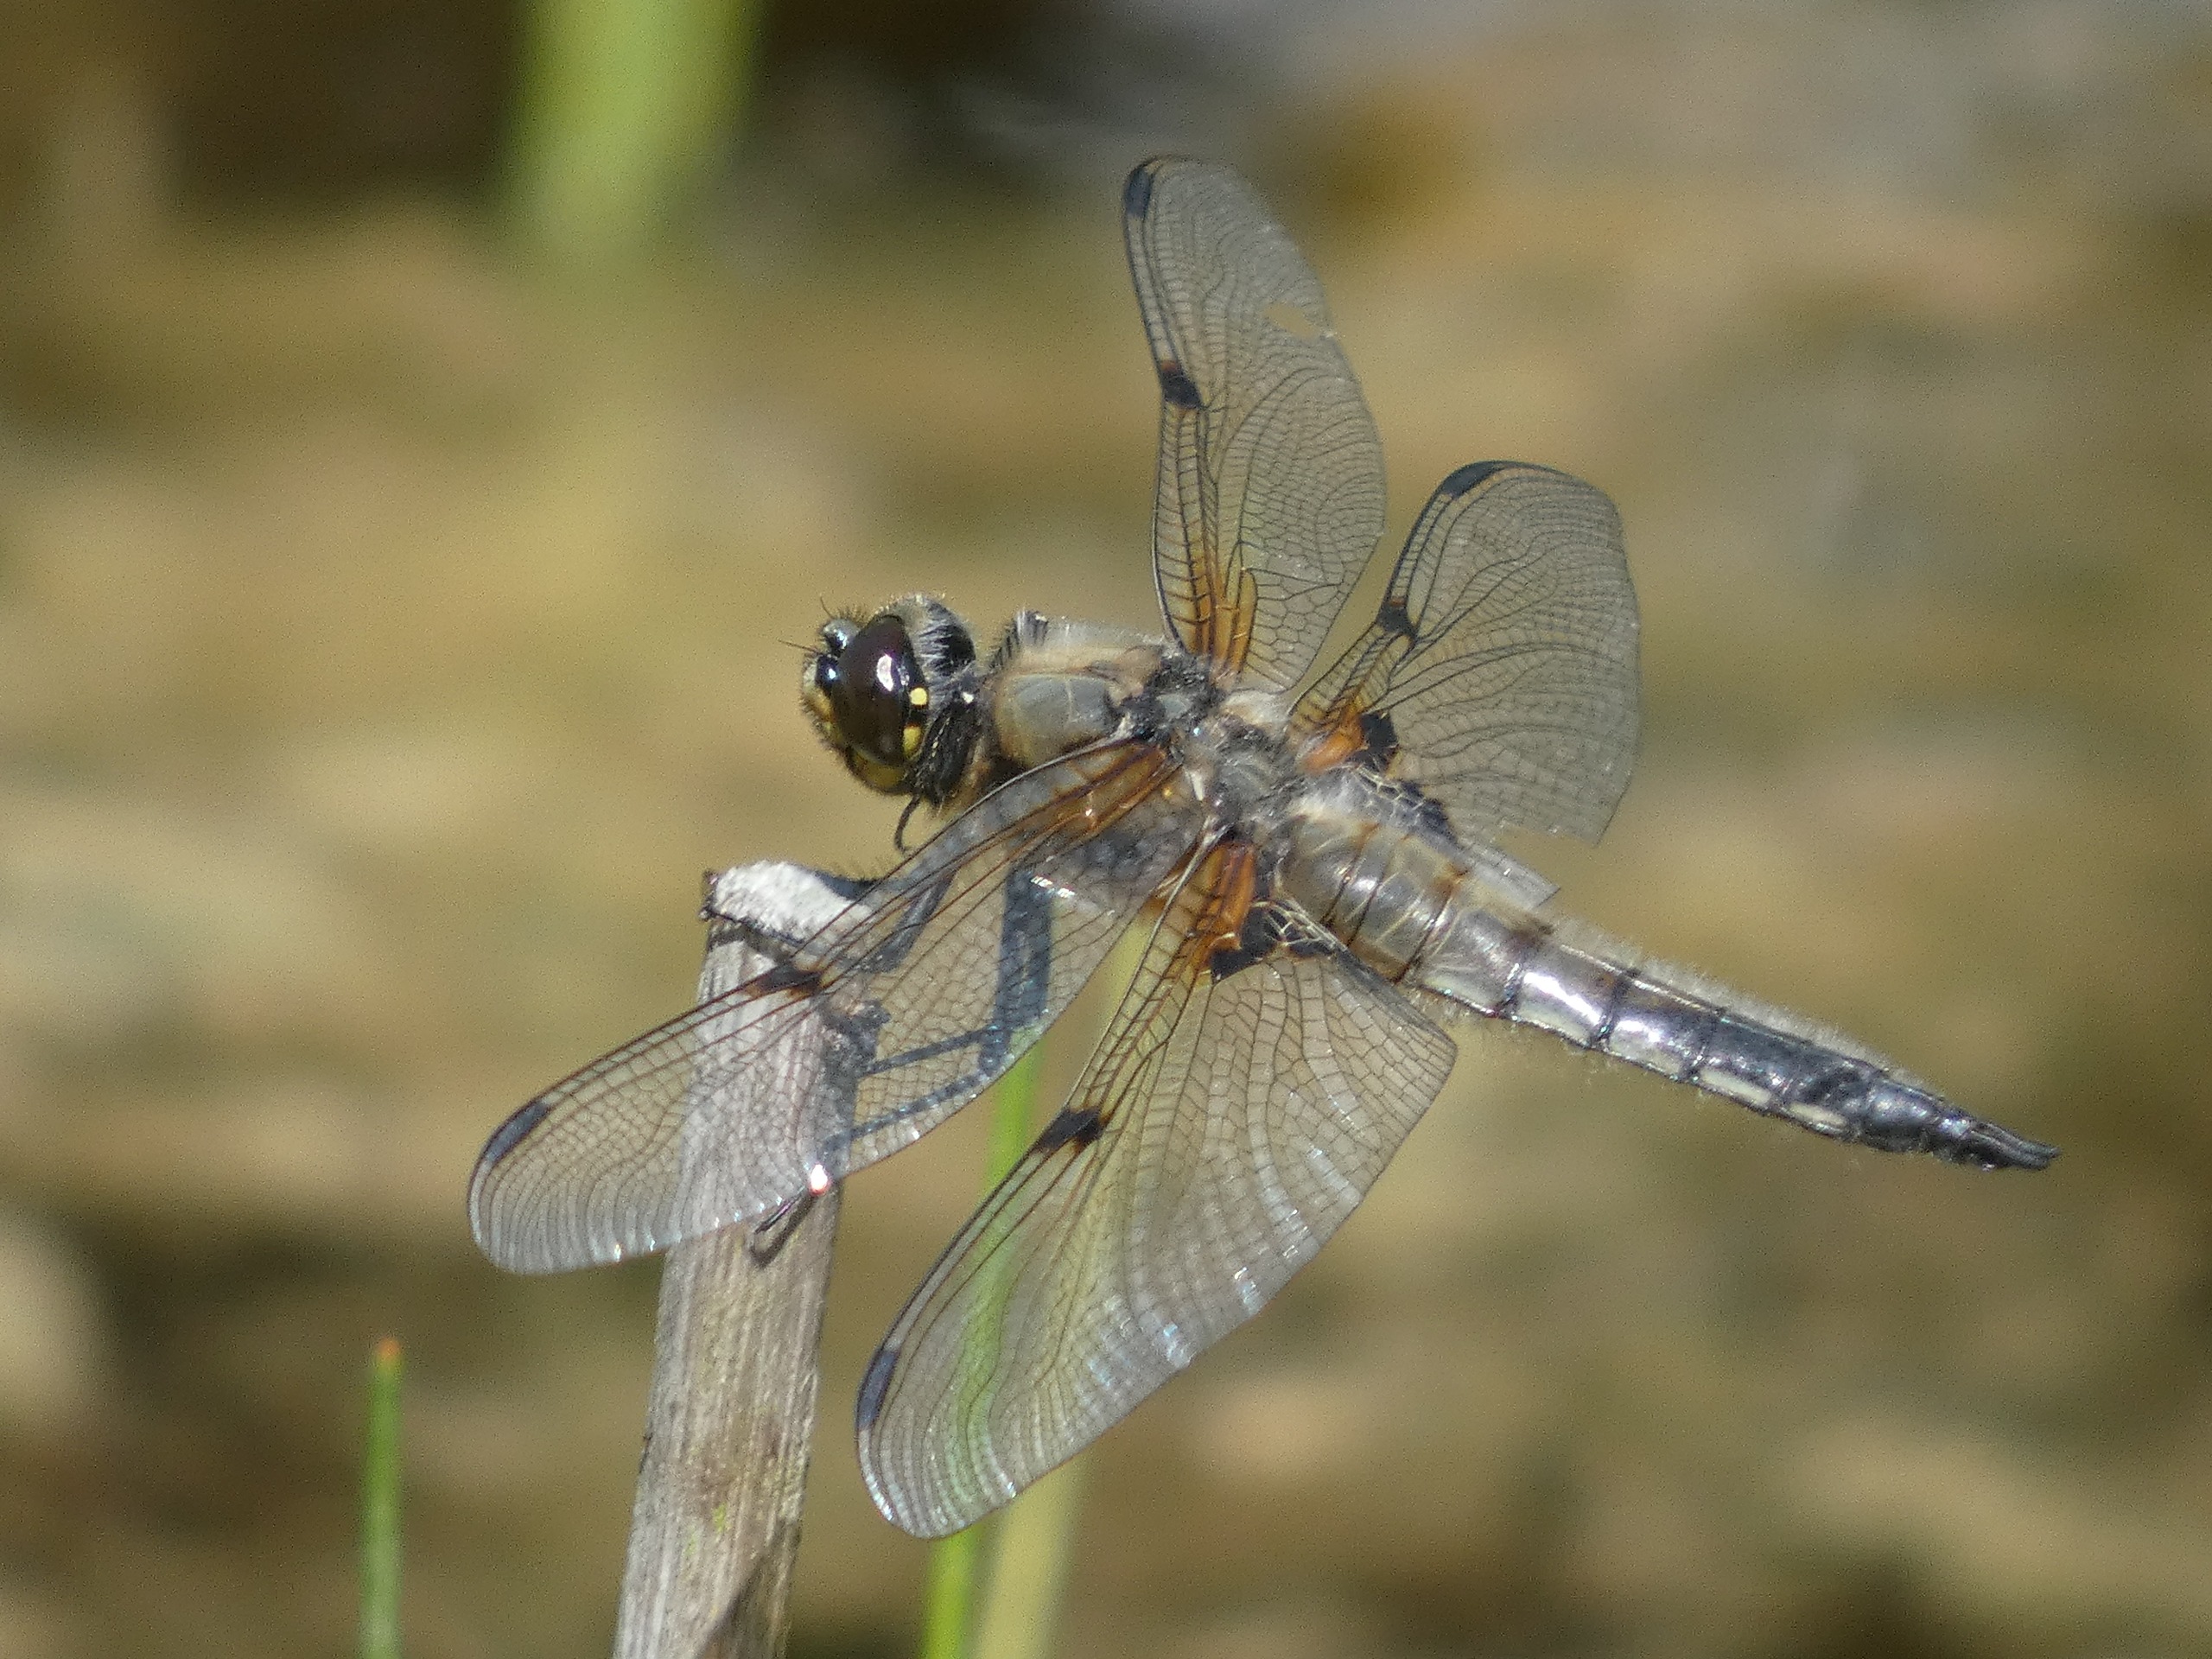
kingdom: Animalia
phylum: Arthropoda
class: Insecta
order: Odonata
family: Libellulidae
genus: Libellula
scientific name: Libellula quadrimaculata
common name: Fireplettet libel
